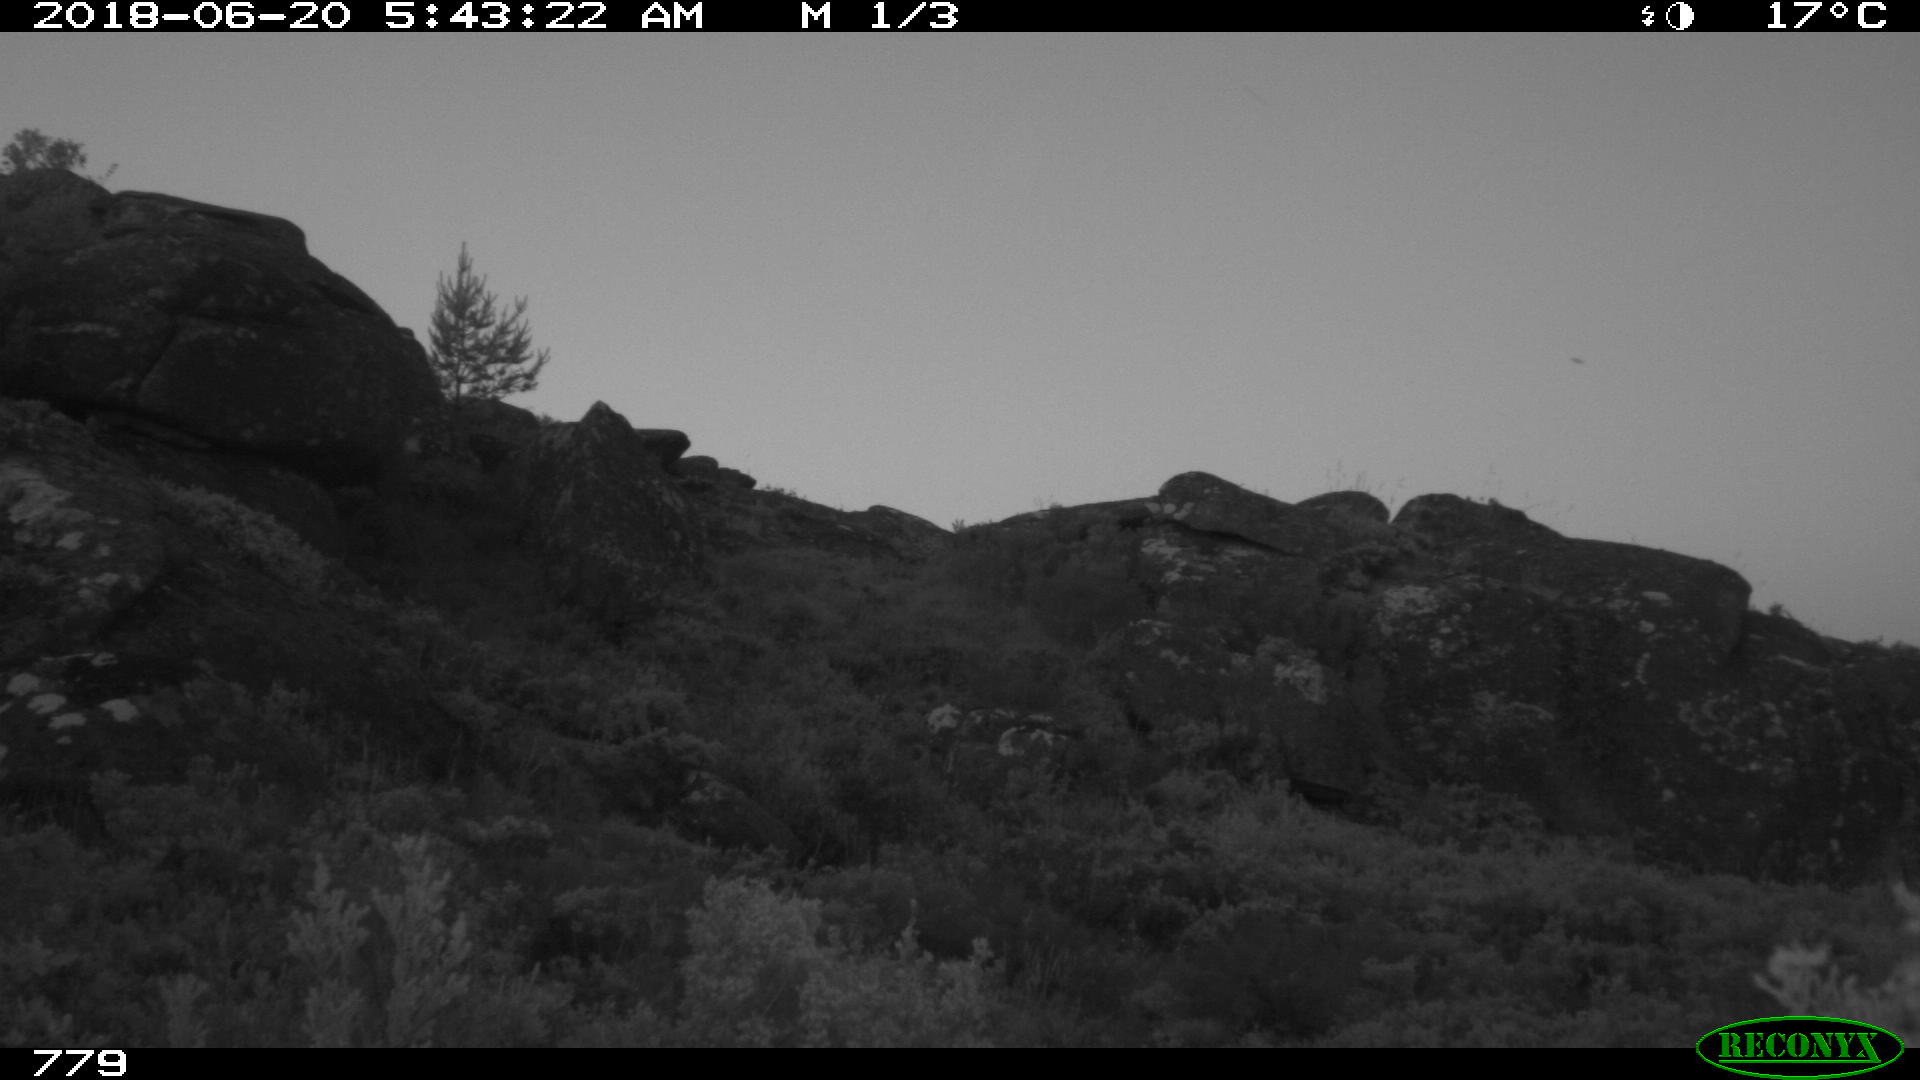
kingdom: Animalia
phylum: Chordata
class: Mammalia
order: Perissodactyla
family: Equidae
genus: Equus
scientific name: Equus caballus
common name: Horse
